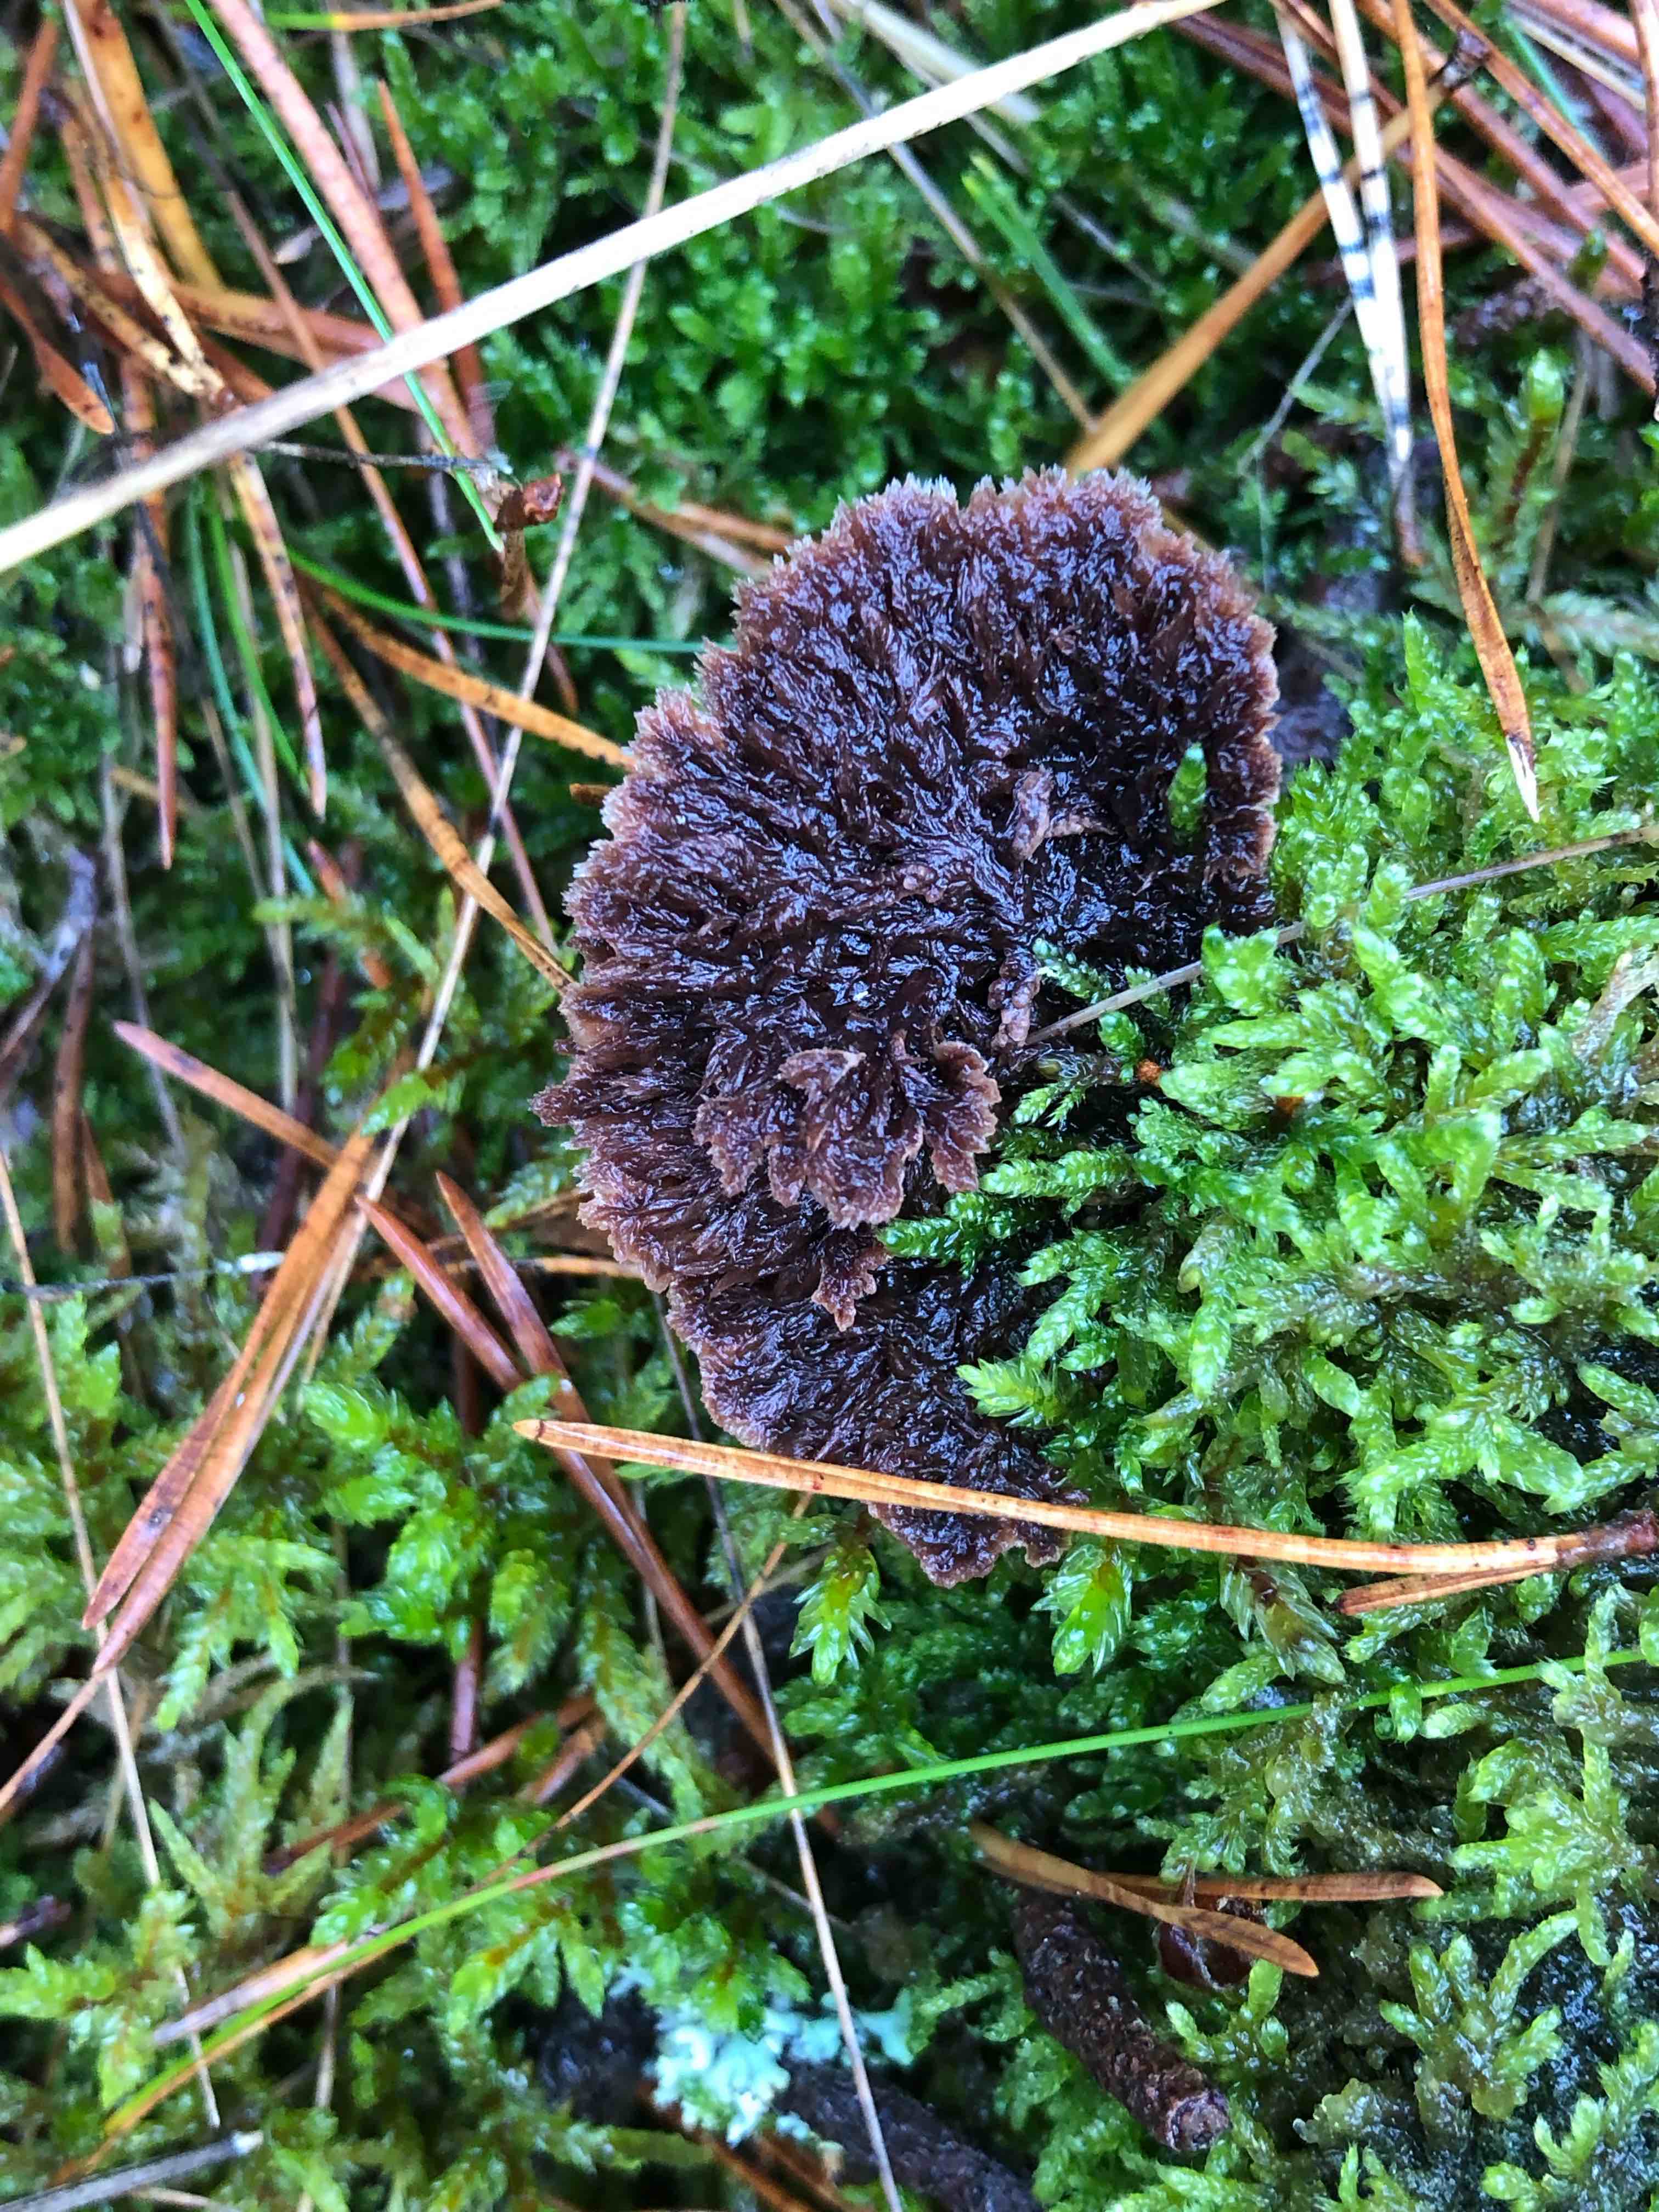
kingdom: Fungi
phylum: Basidiomycota
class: Agaricomycetes
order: Thelephorales
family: Thelephoraceae
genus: Thelephora
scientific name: Thelephora terrestris
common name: fliget frynsesvamp
